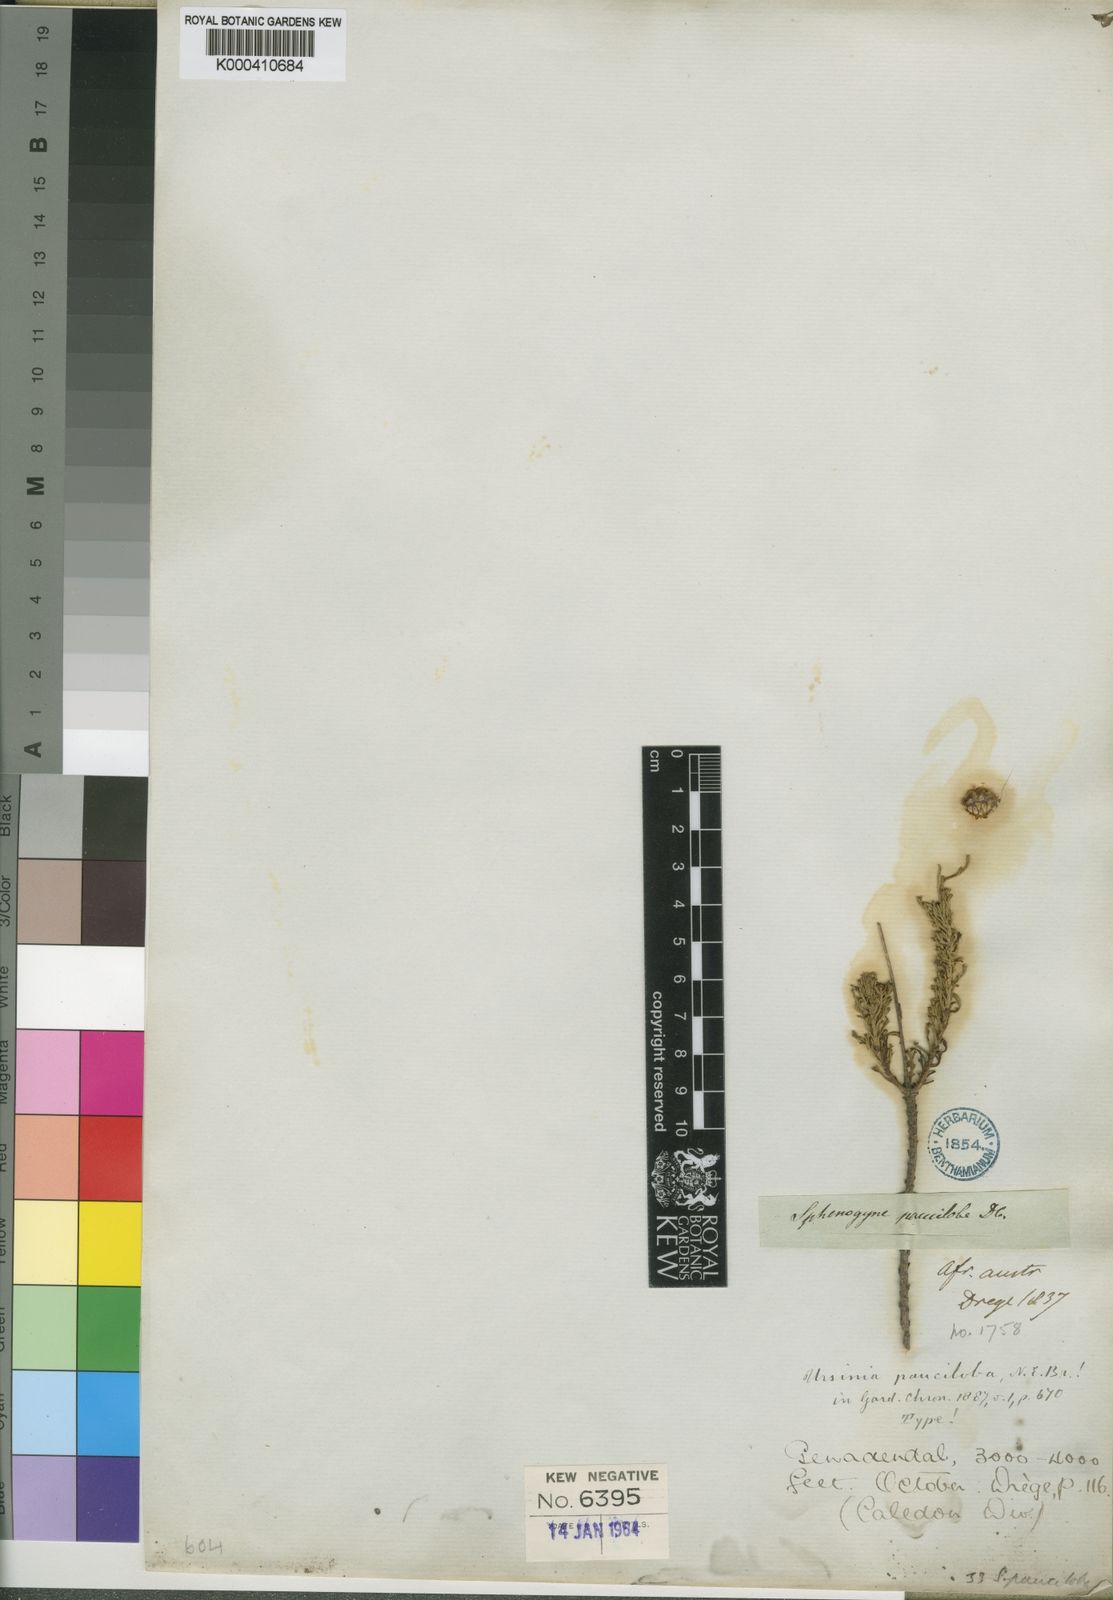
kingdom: Plantae
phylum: Tracheophyta
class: Magnoliopsida
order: Asterales
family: Asteraceae
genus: Ursinia
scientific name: Ursinia punctata
